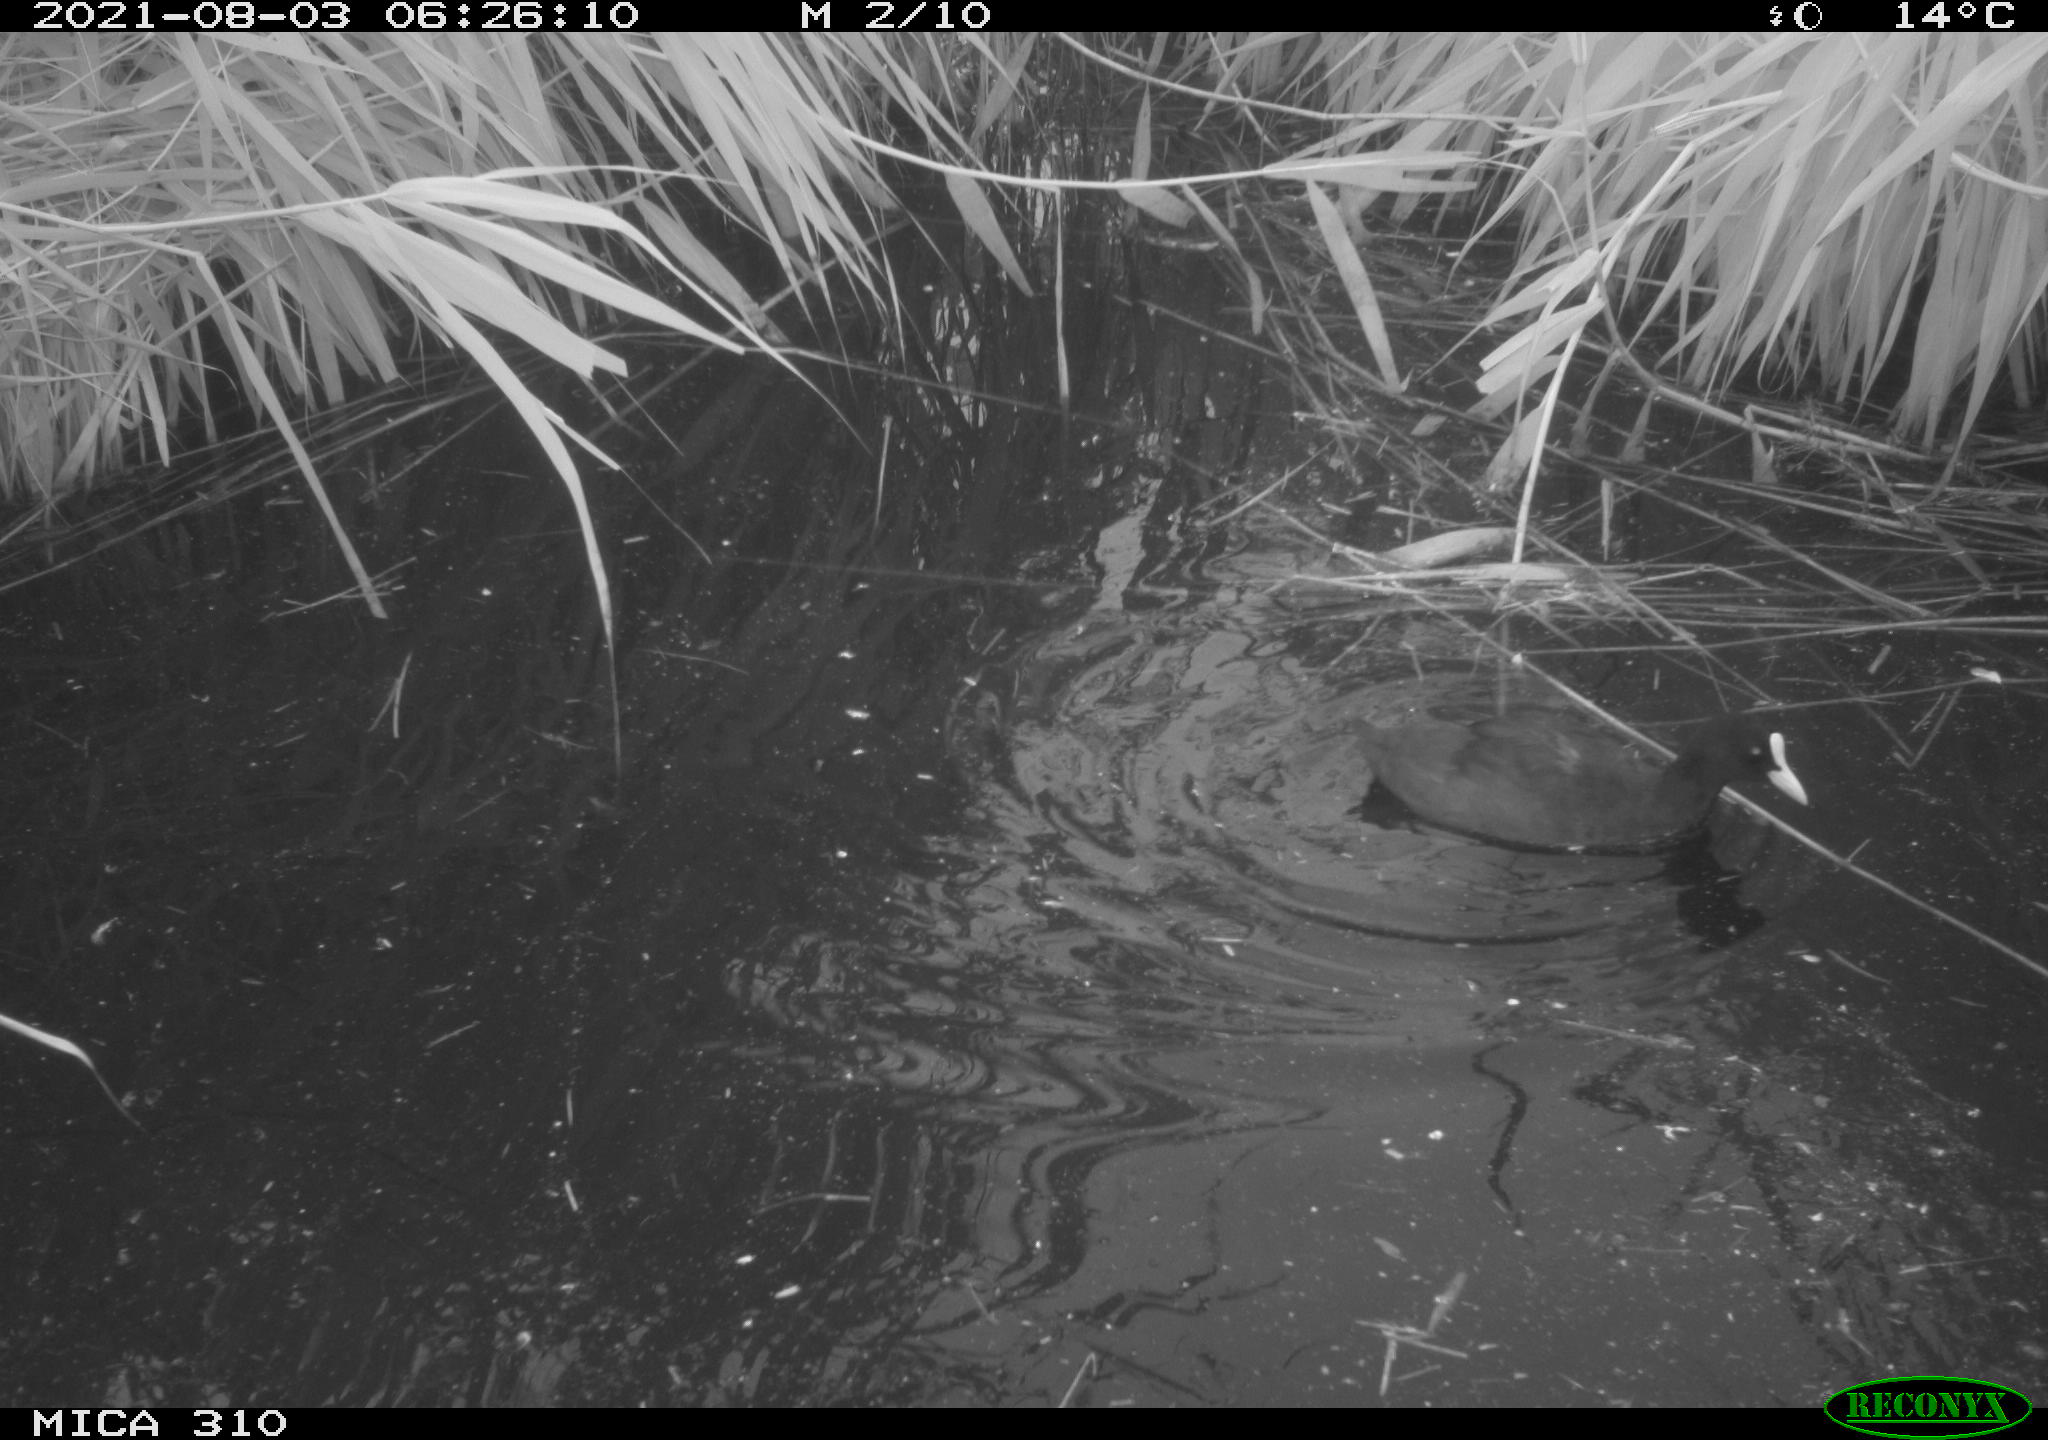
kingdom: Animalia
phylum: Chordata
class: Aves
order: Gruiformes
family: Rallidae
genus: Fulica
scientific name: Fulica atra
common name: Eurasian coot
